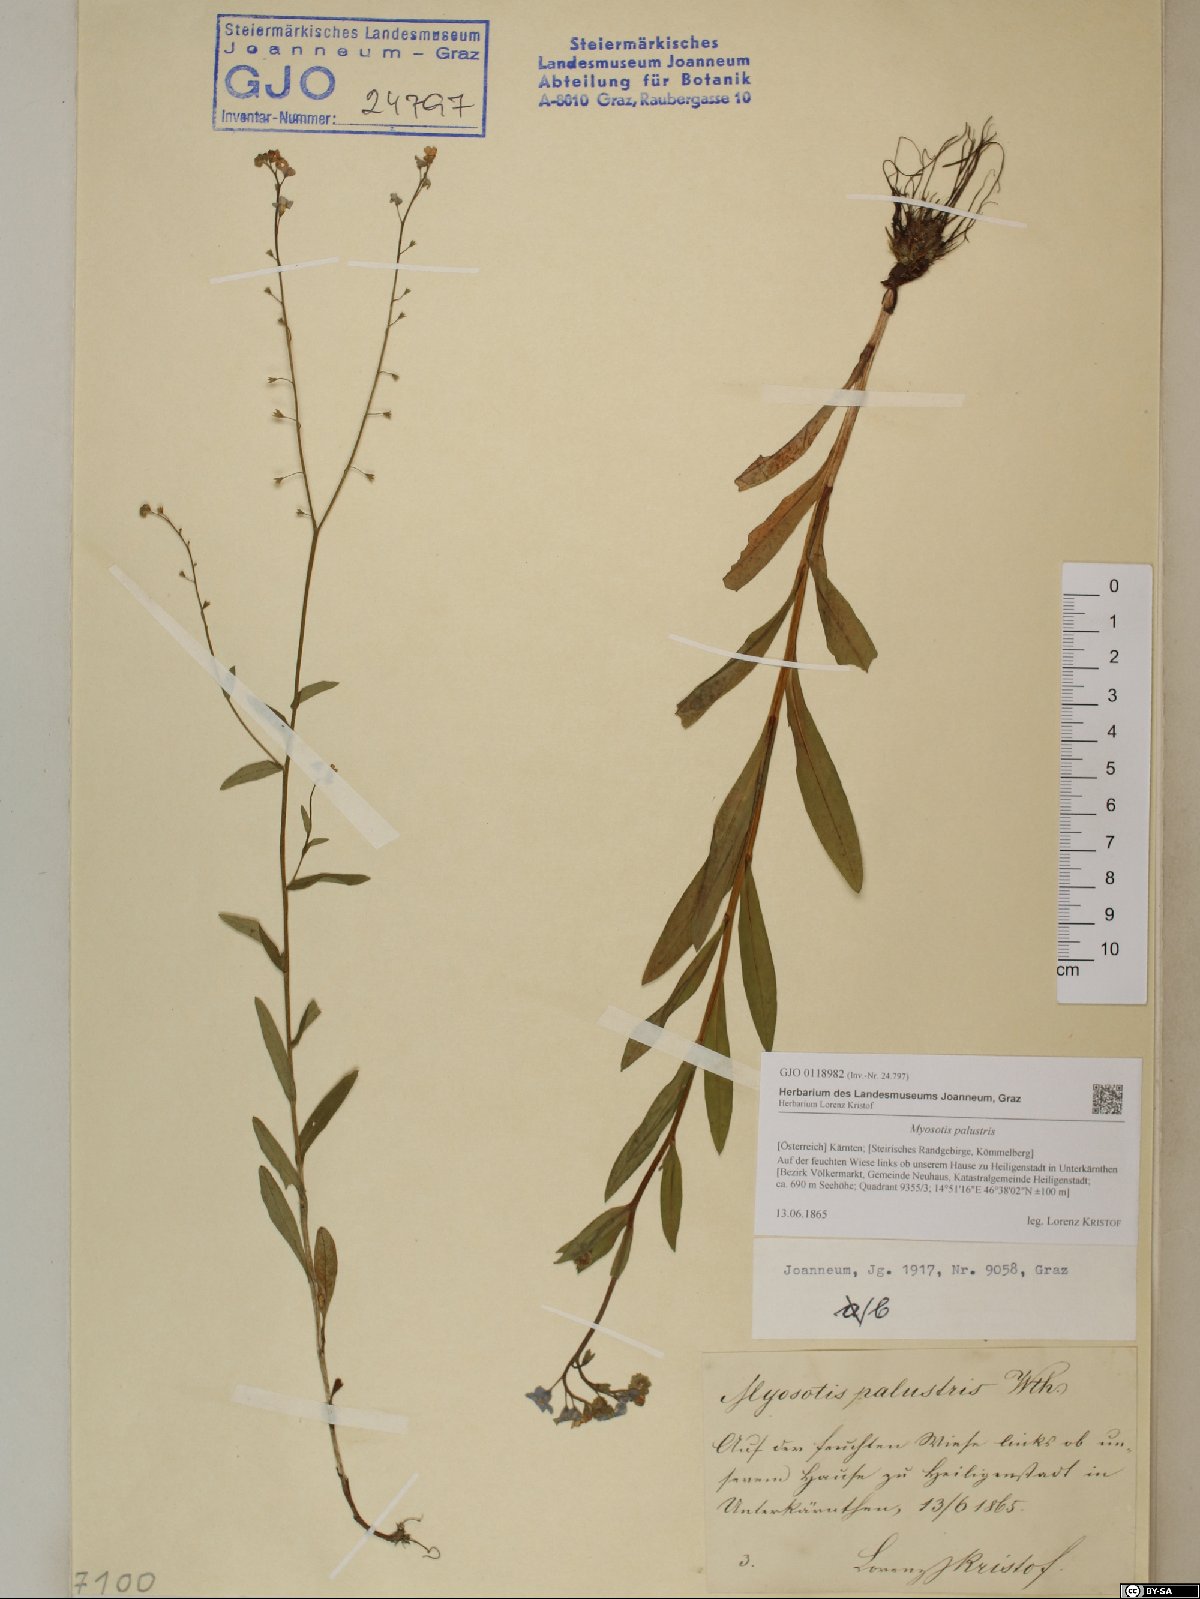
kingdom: Plantae
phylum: Tracheophyta
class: Magnoliopsida
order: Boraginales
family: Boraginaceae
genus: Myosotis
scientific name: Myosotis scorpioides
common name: Water forget-me-not
